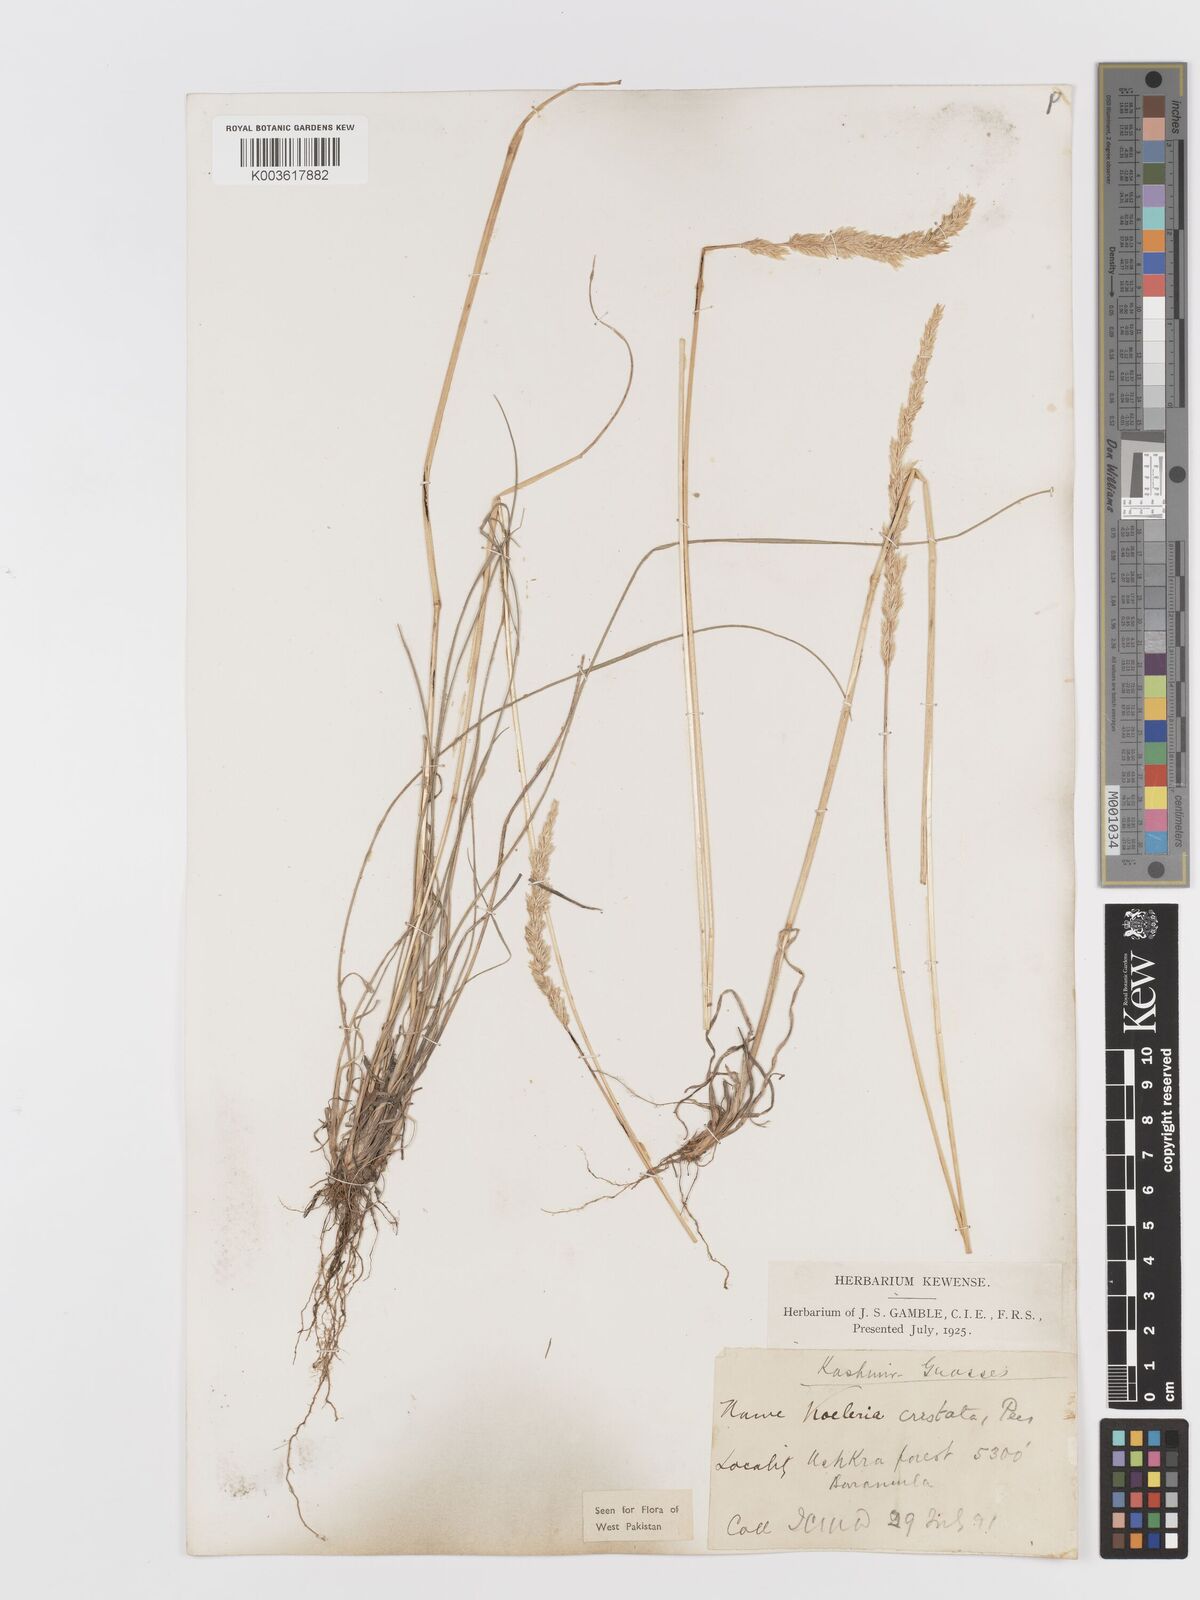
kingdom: Plantae
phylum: Tracheophyta
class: Liliopsida
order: Poales
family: Poaceae
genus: Koeleria
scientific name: Koeleria
